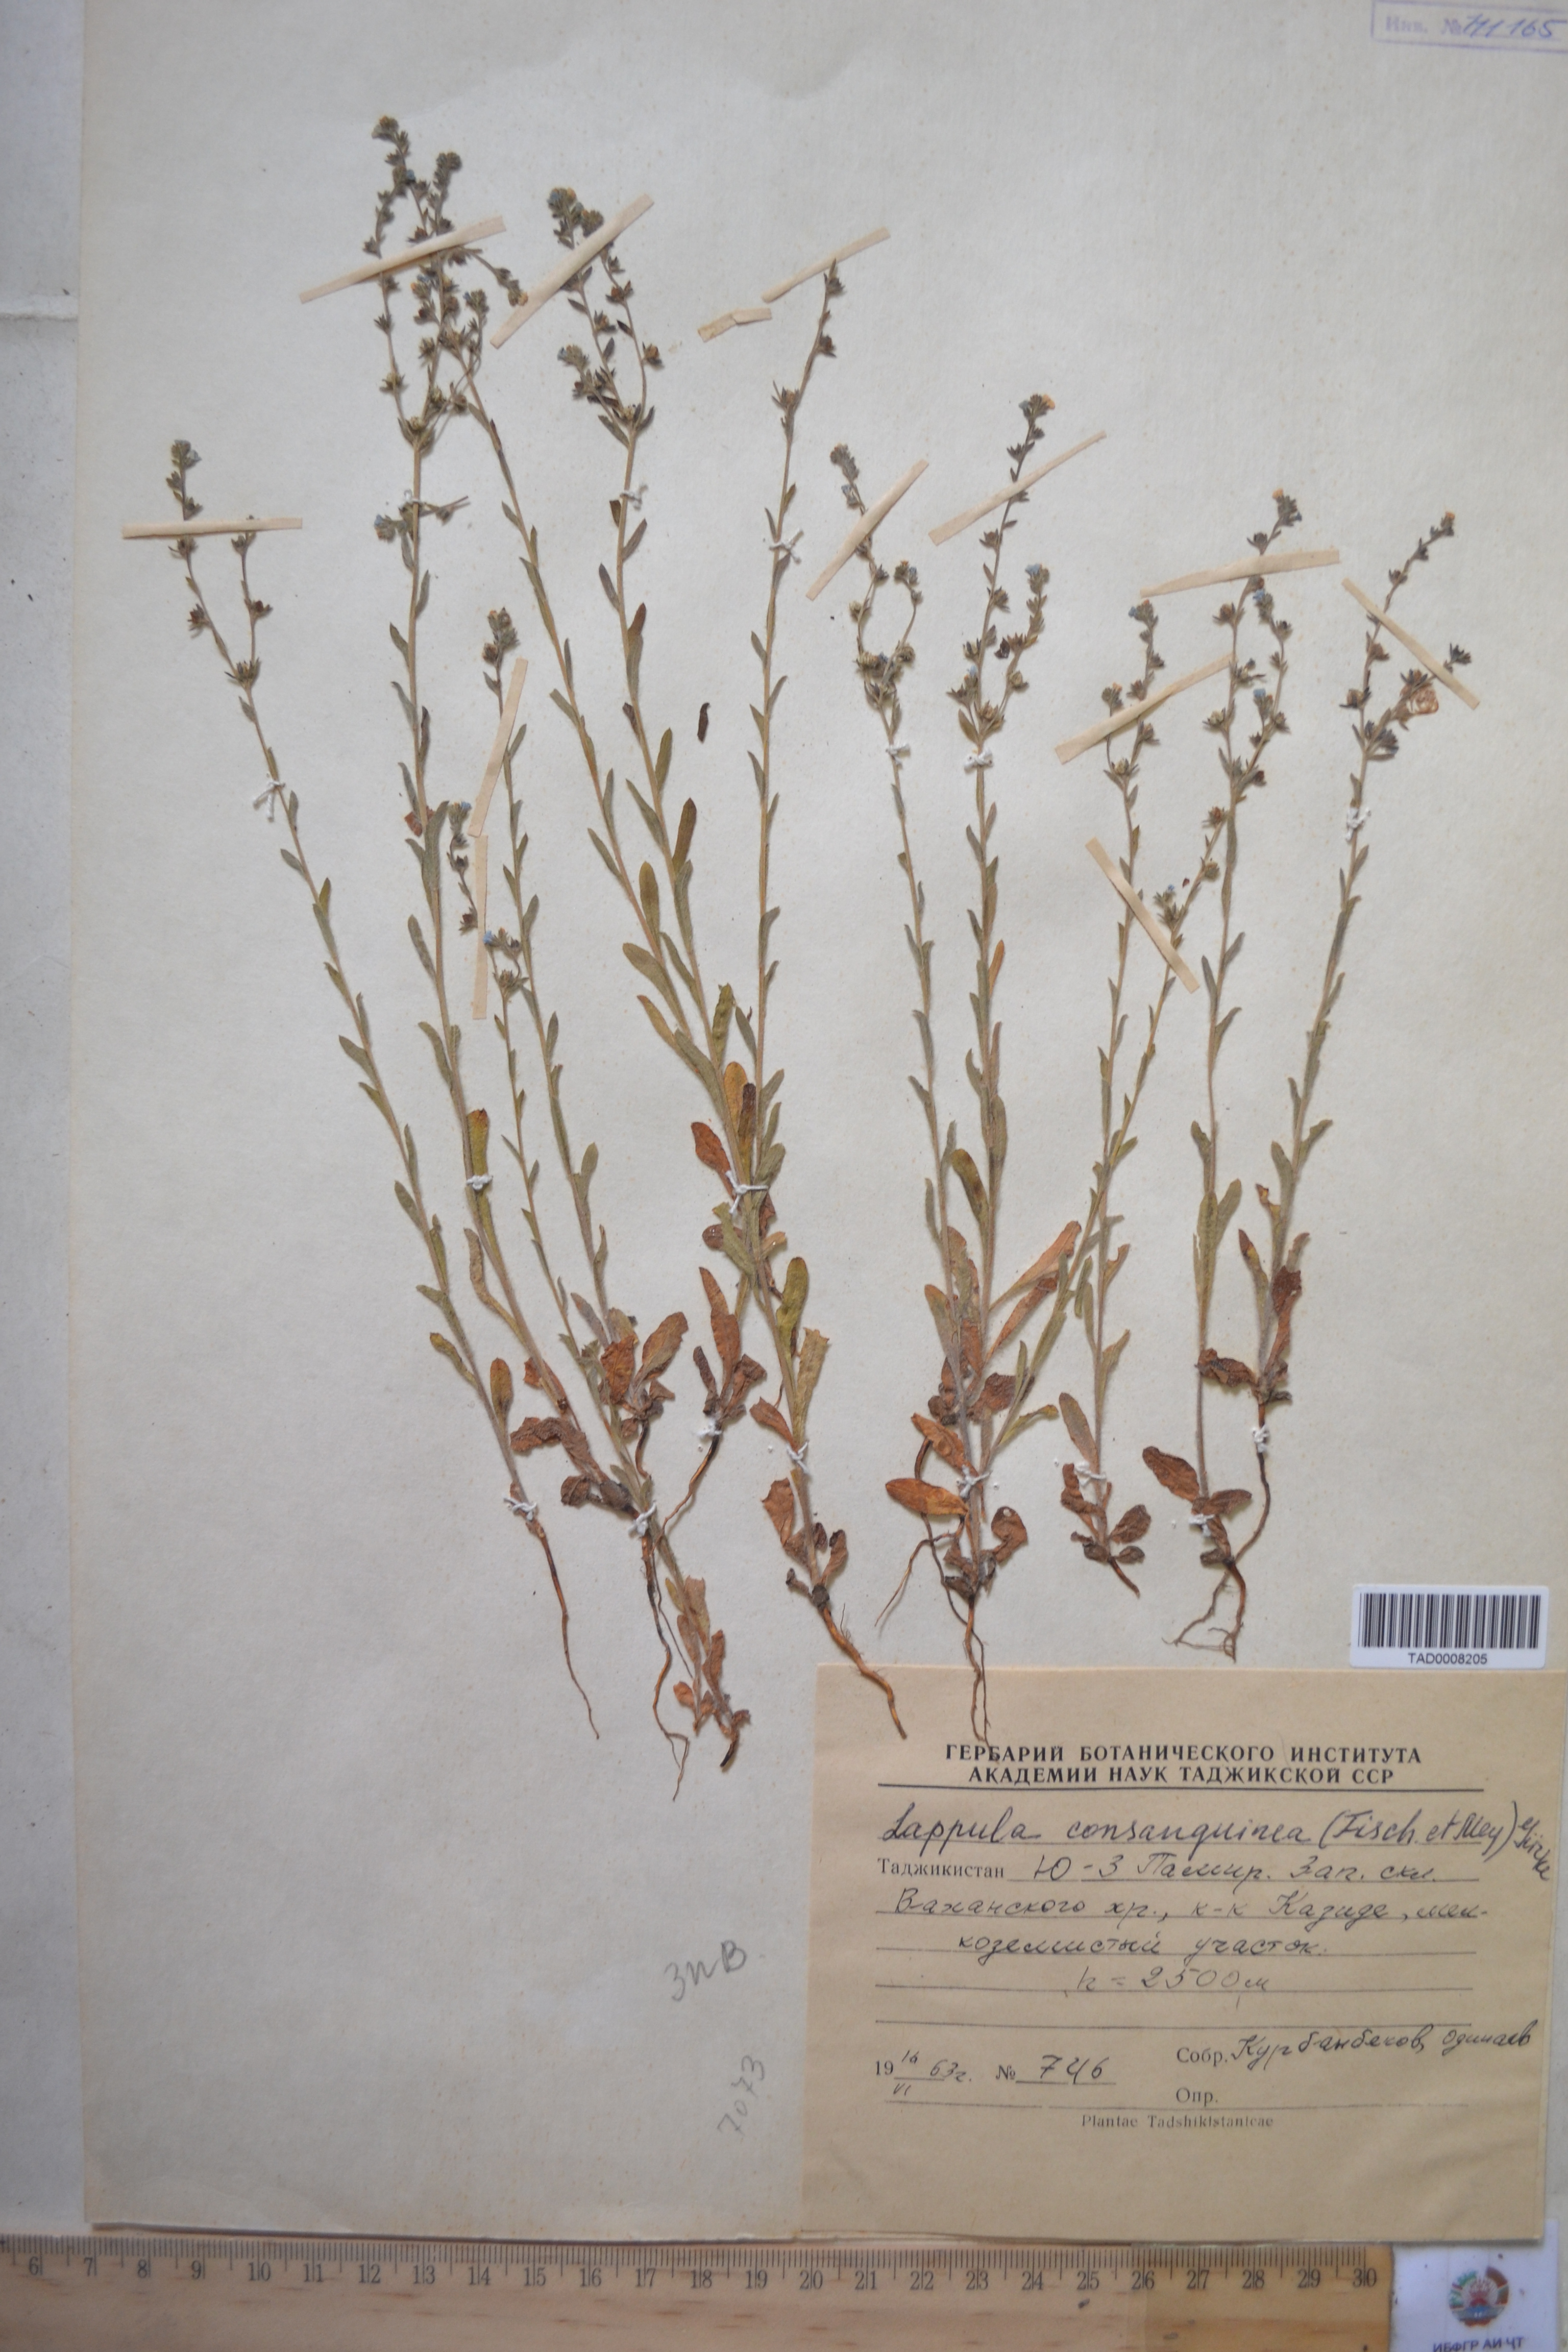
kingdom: Plantae
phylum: Tracheophyta
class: Magnoliopsida
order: Boraginales
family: Boraginaceae
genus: Lappula
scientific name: Lappula squarrosa
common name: European stickseed
